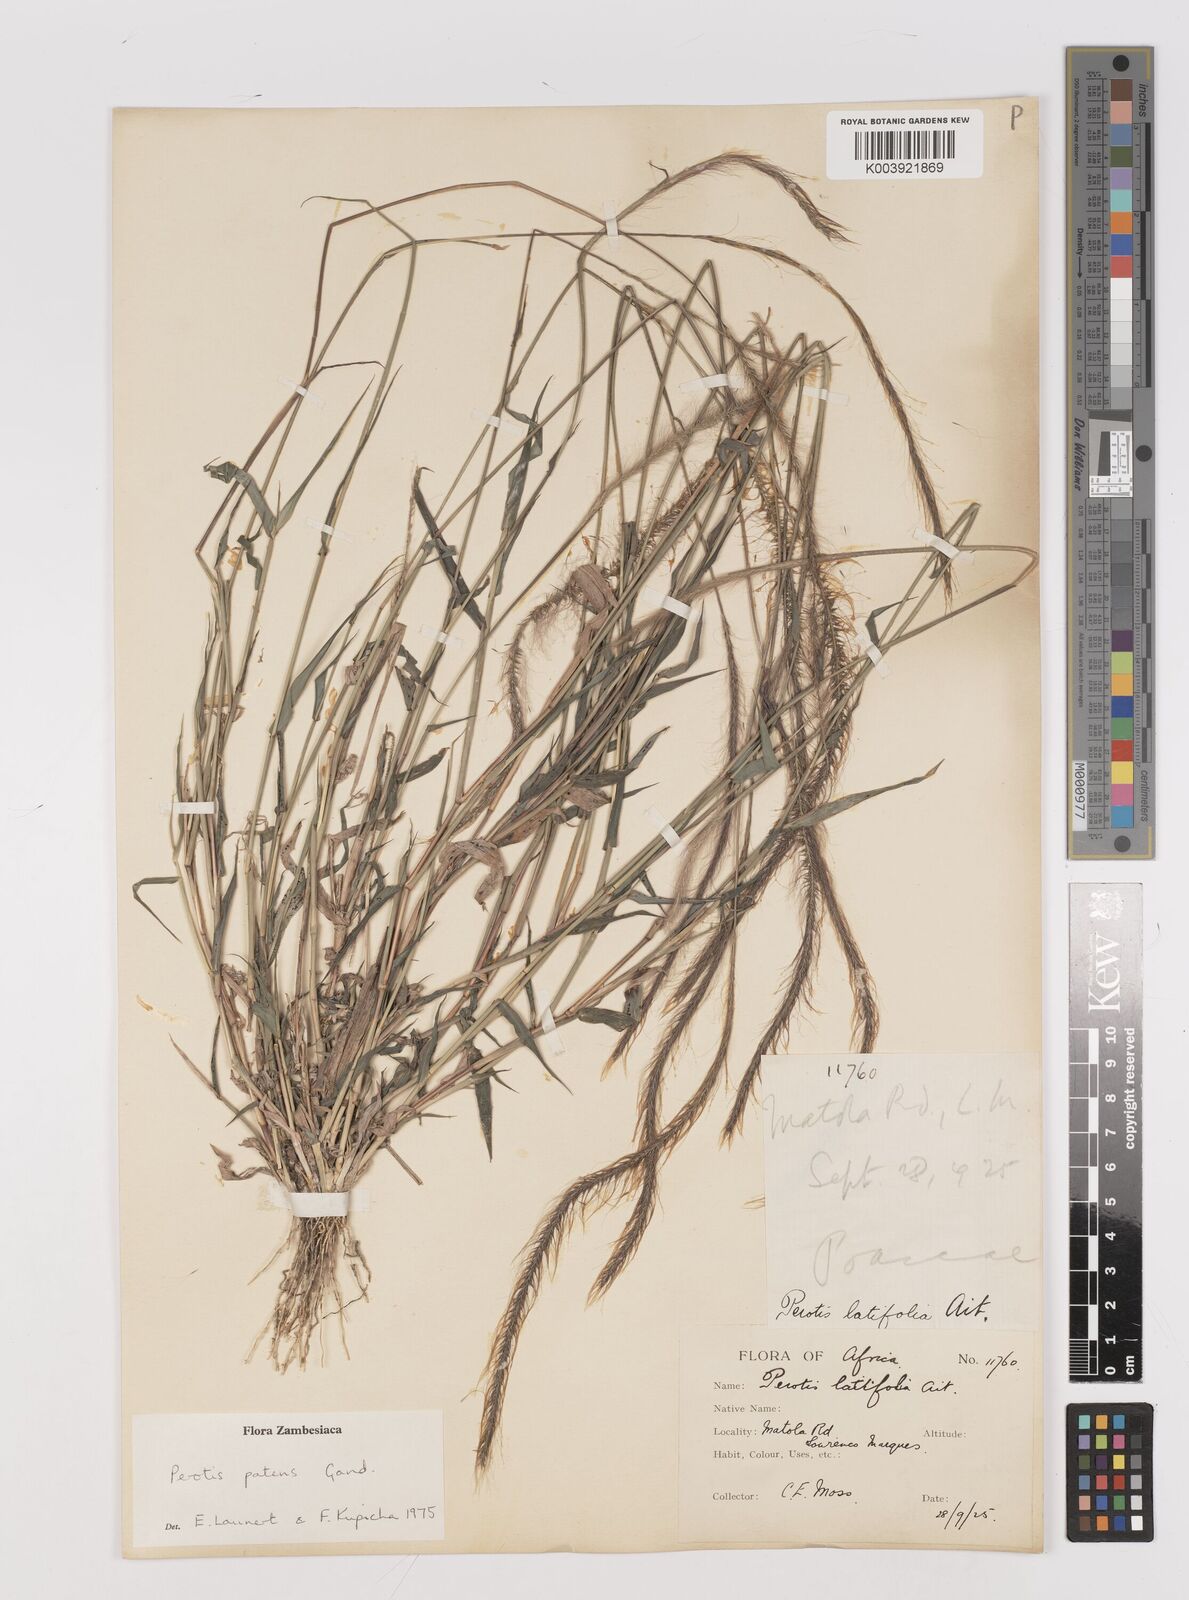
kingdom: Plantae
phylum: Tracheophyta
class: Liliopsida
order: Poales
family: Poaceae
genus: Perotis
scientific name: Perotis patens
